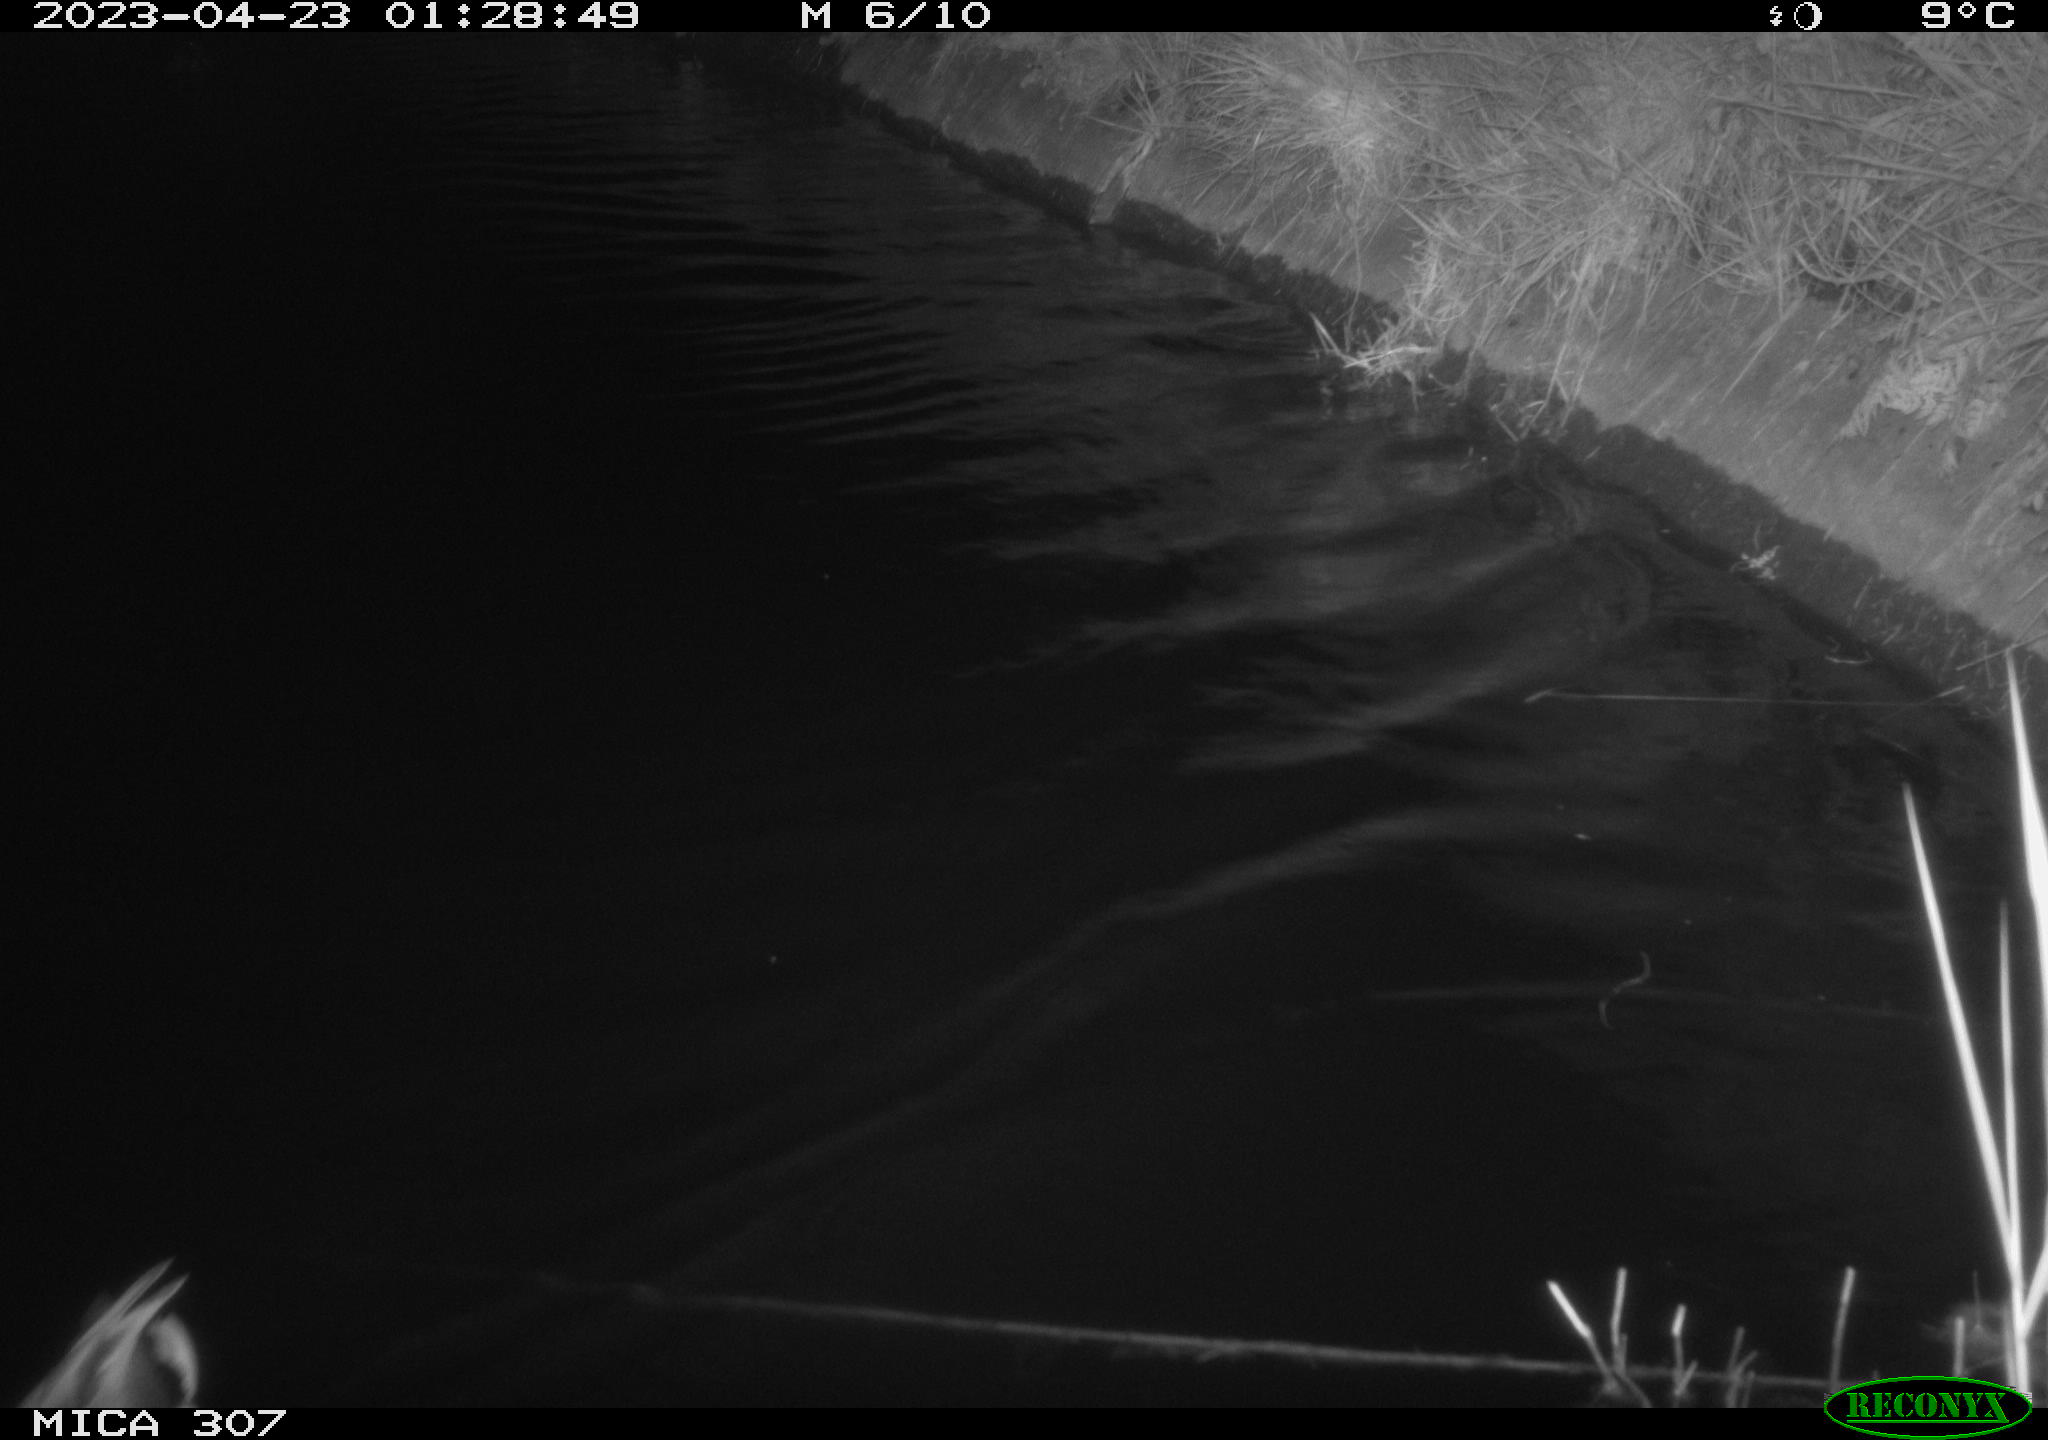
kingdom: Animalia
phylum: Chordata
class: Aves
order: Anseriformes
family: Anatidae
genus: Anas
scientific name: Anas
